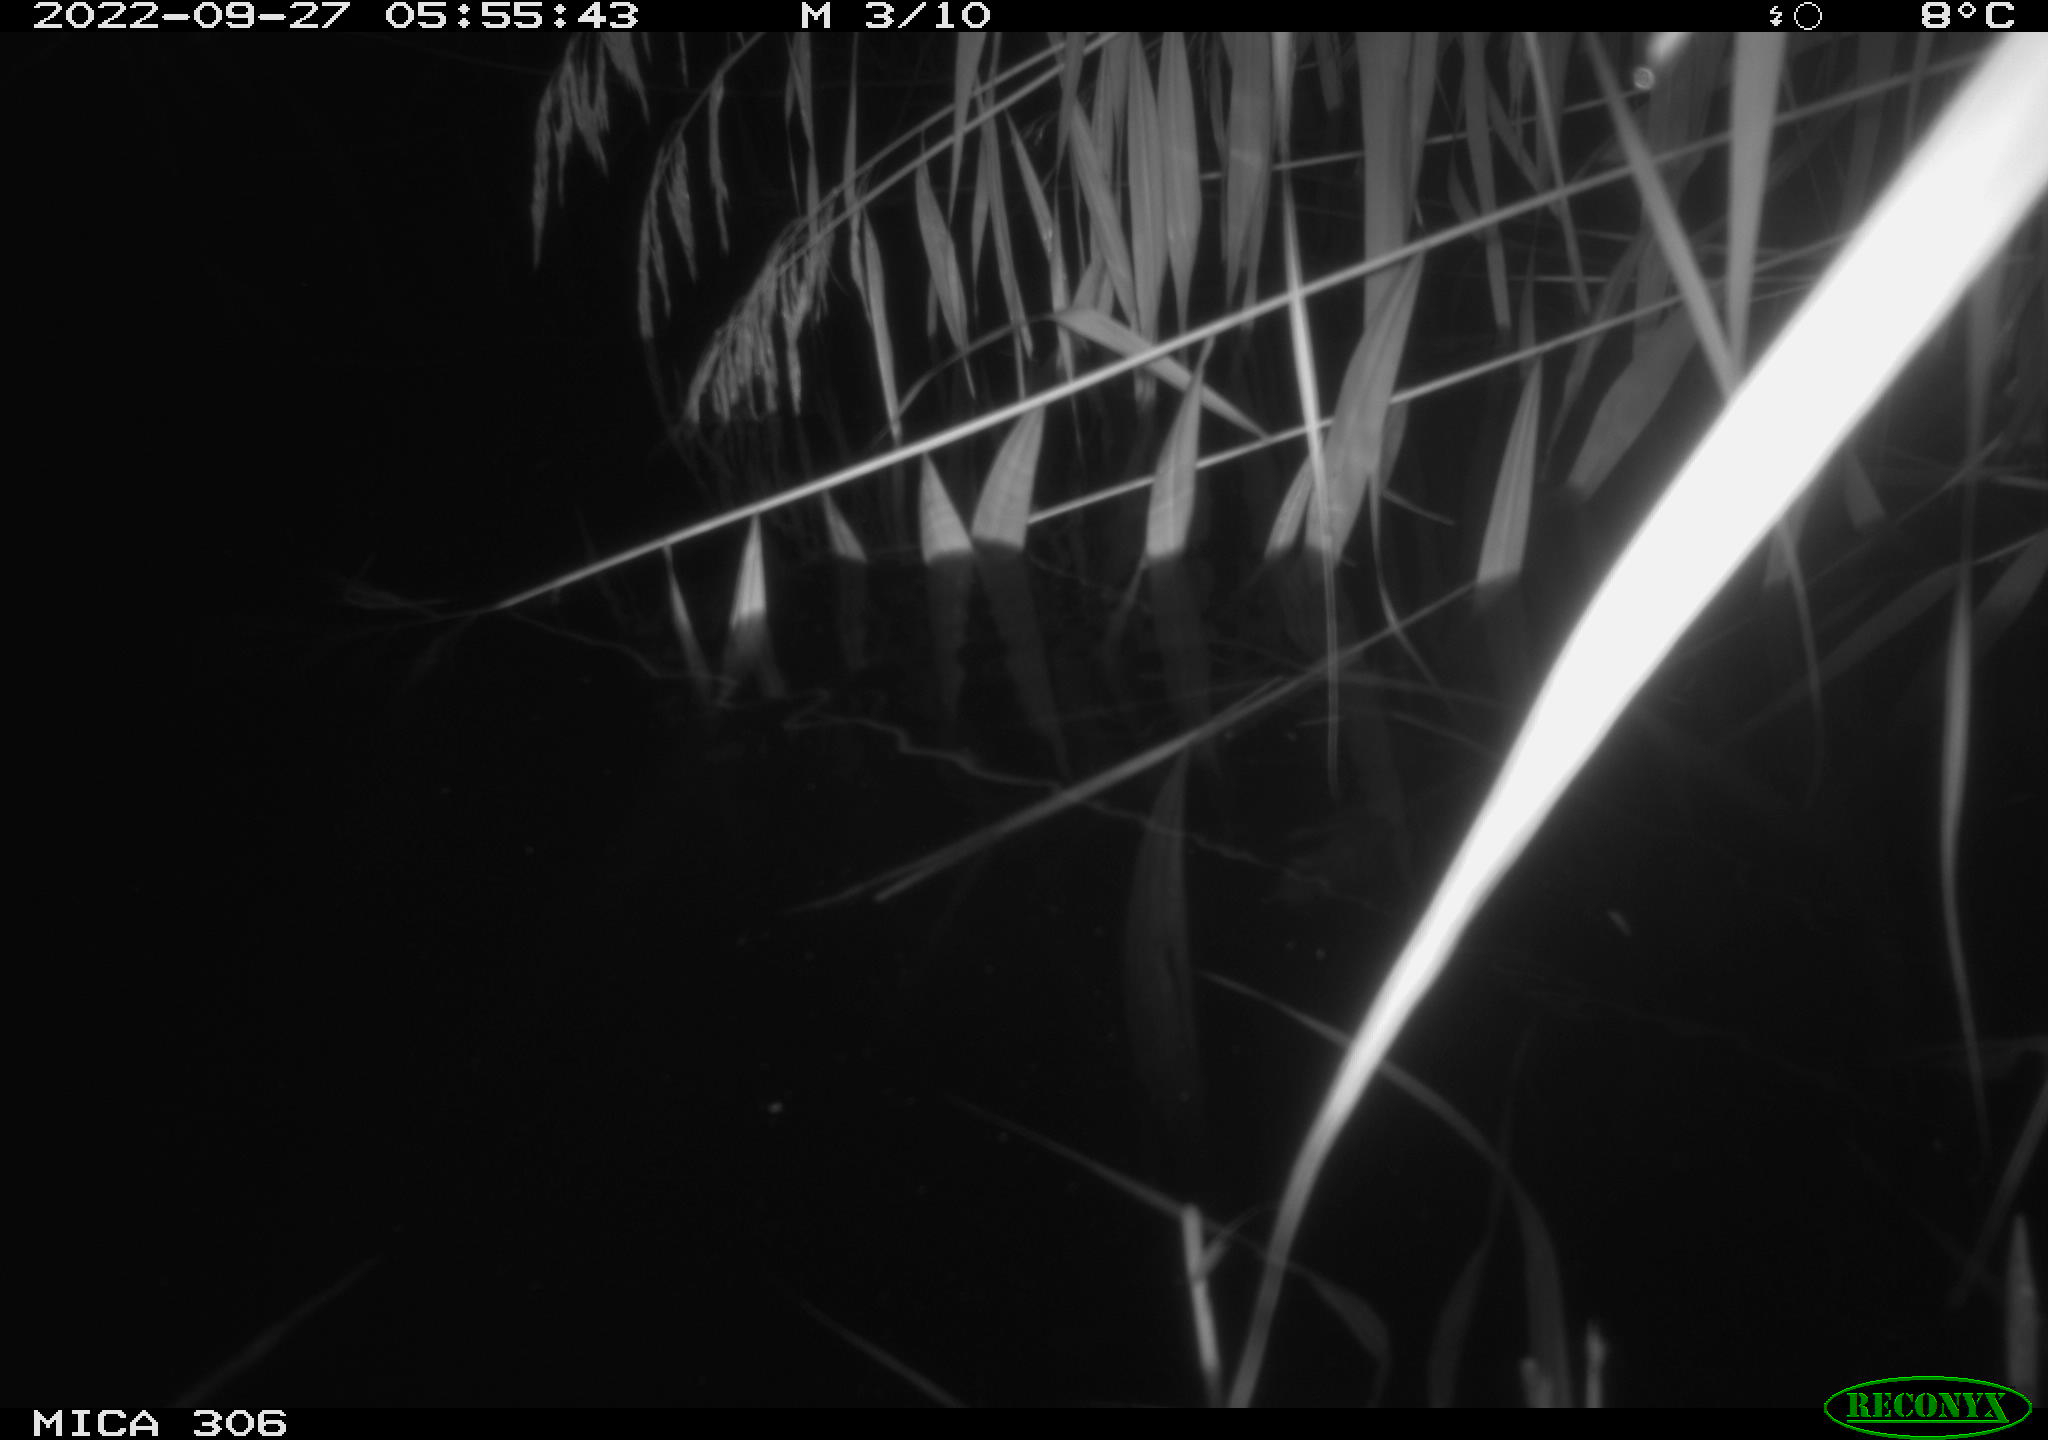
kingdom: Animalia
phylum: Chordata
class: Mammalia
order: Rodentia
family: Muridae
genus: Rattus
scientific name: Rattus norvegicus
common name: Brown rat
